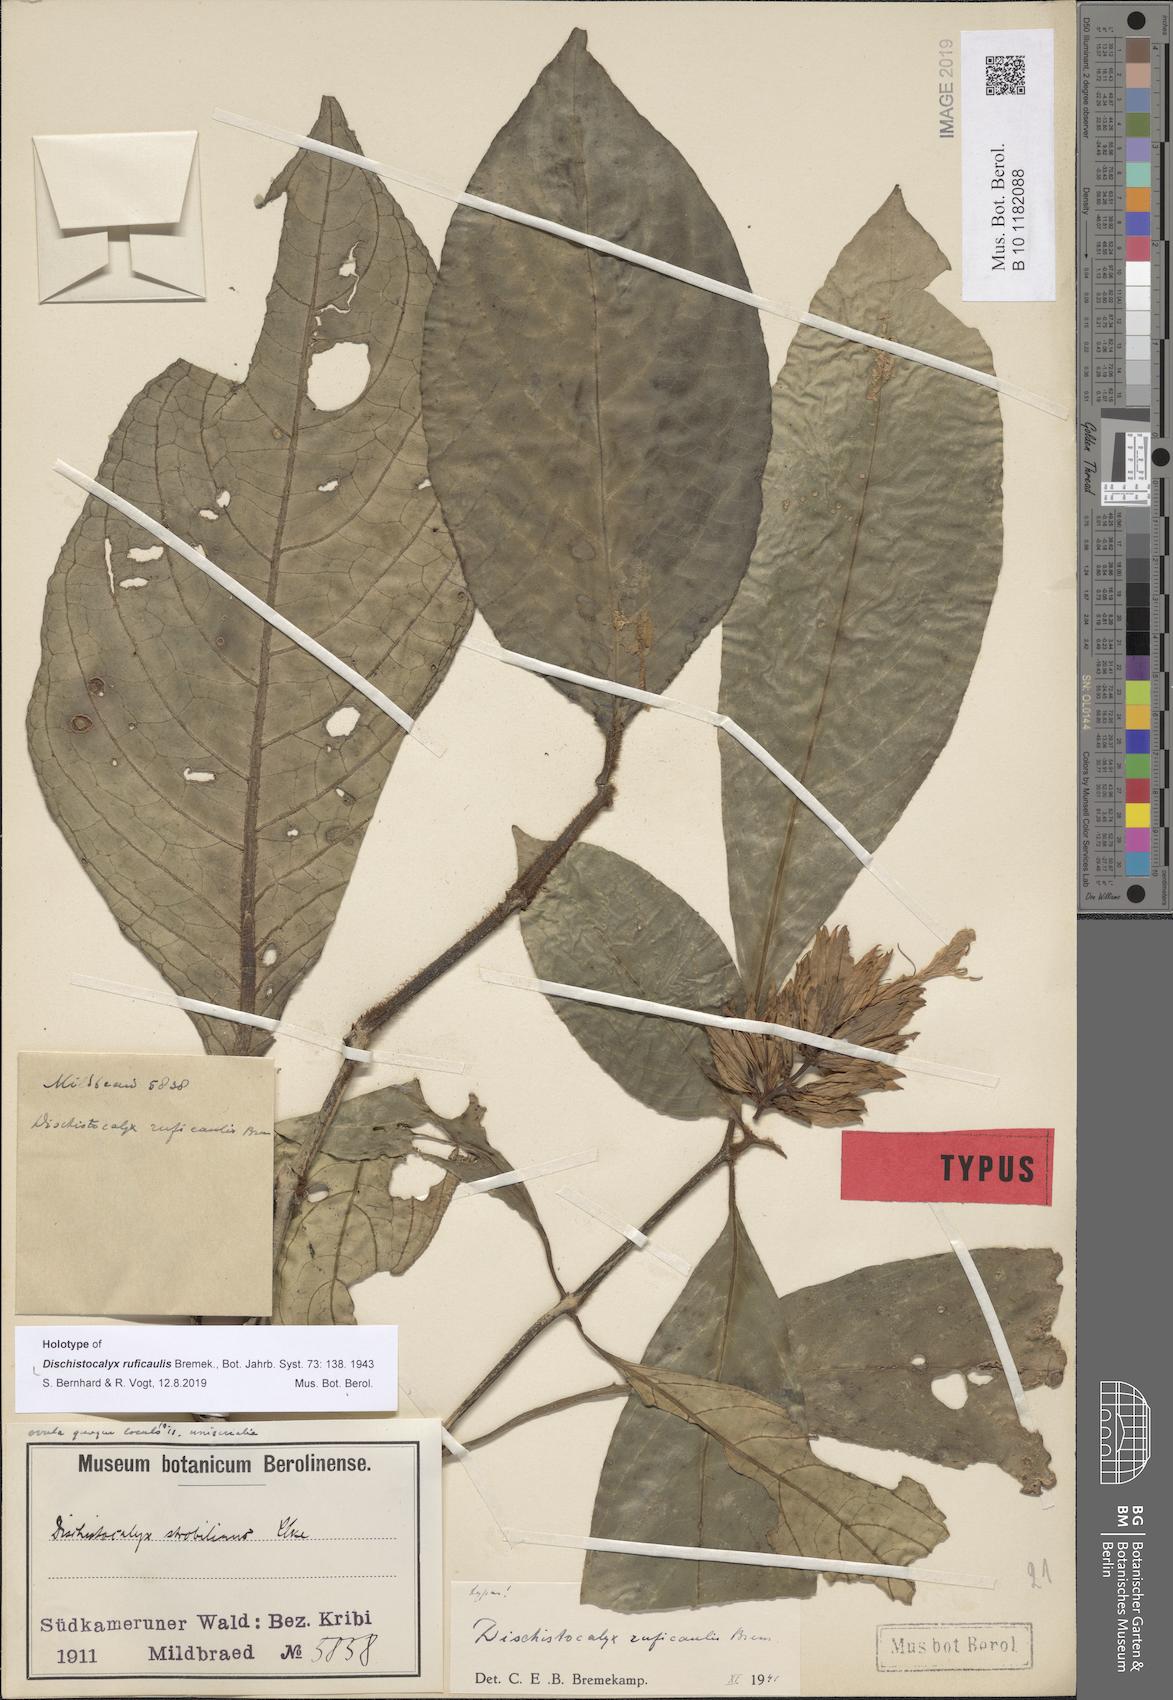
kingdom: Plantae
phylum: Tracheophyta
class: Magnoliopsida
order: Lamiales
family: Acanthaceae
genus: Dischistocalyx
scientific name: Dischistocalyx hirsutus
